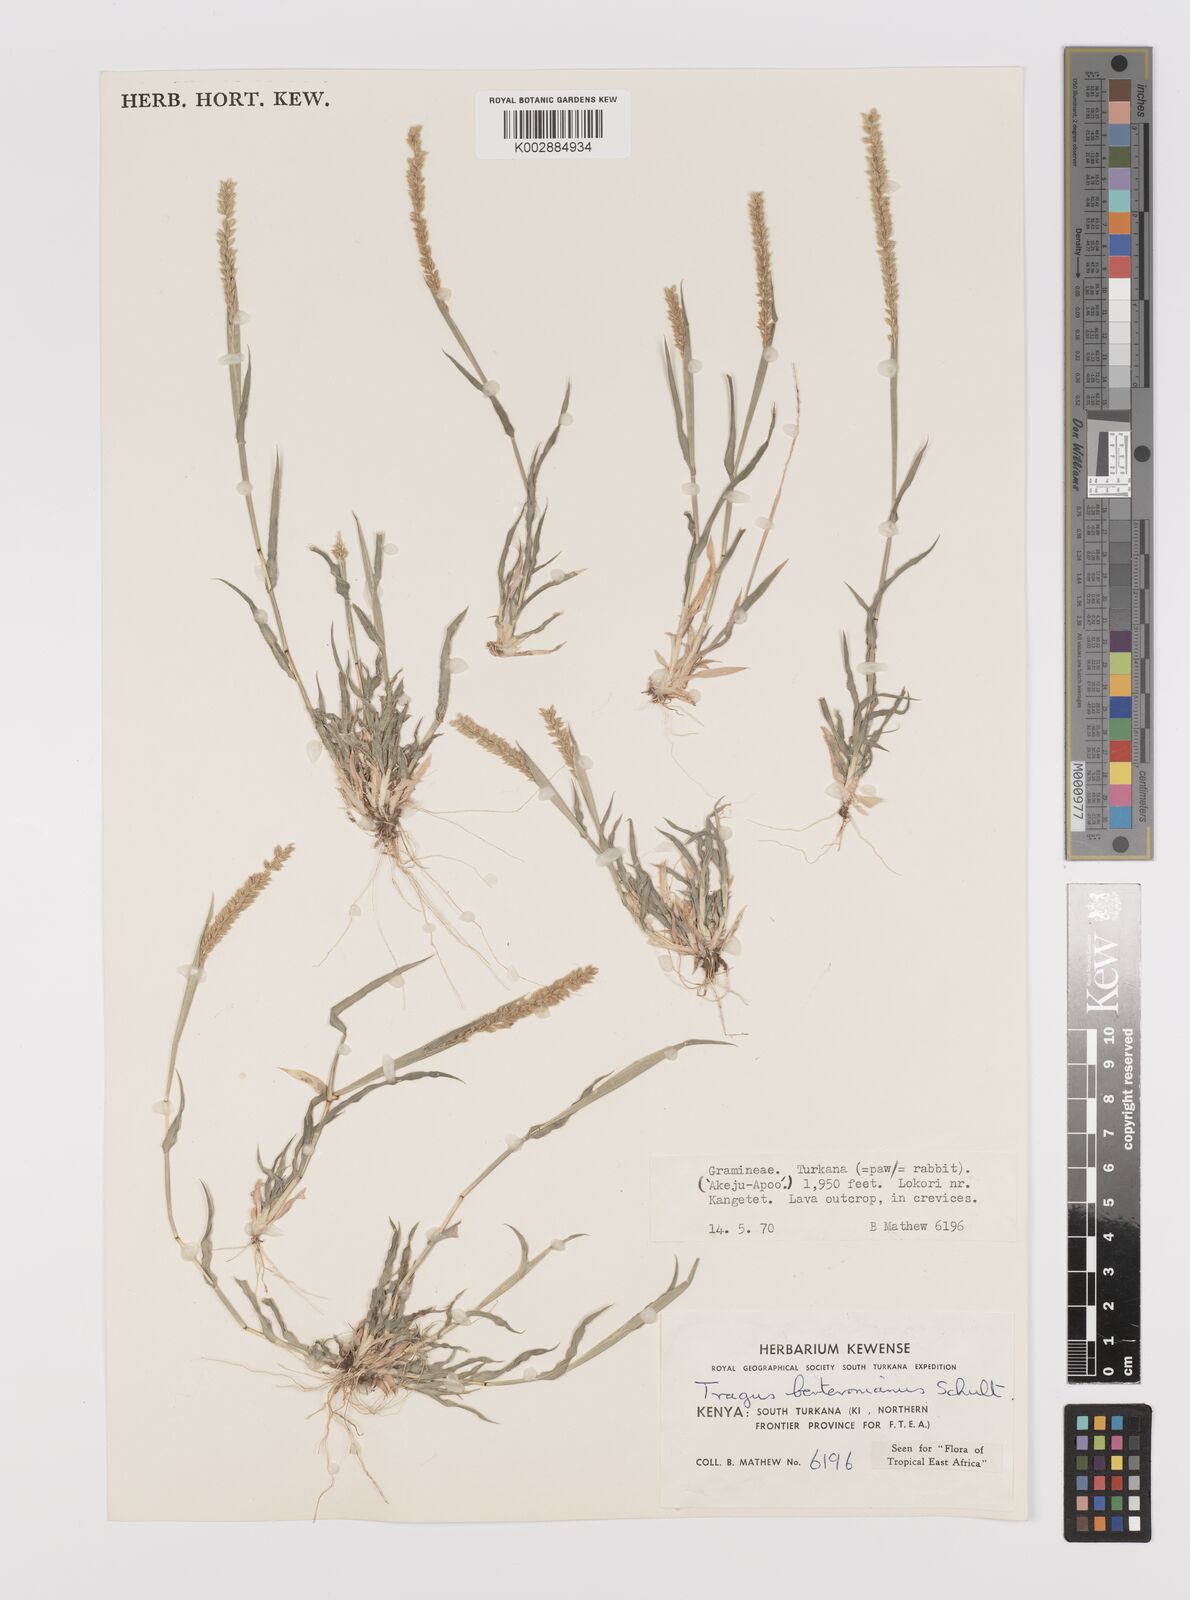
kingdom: Plantae
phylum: Tracheophyta
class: Liliopsida
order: Poales
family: Poaceae
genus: Tragus
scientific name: Tragus berteronianus
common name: African bur-grass
